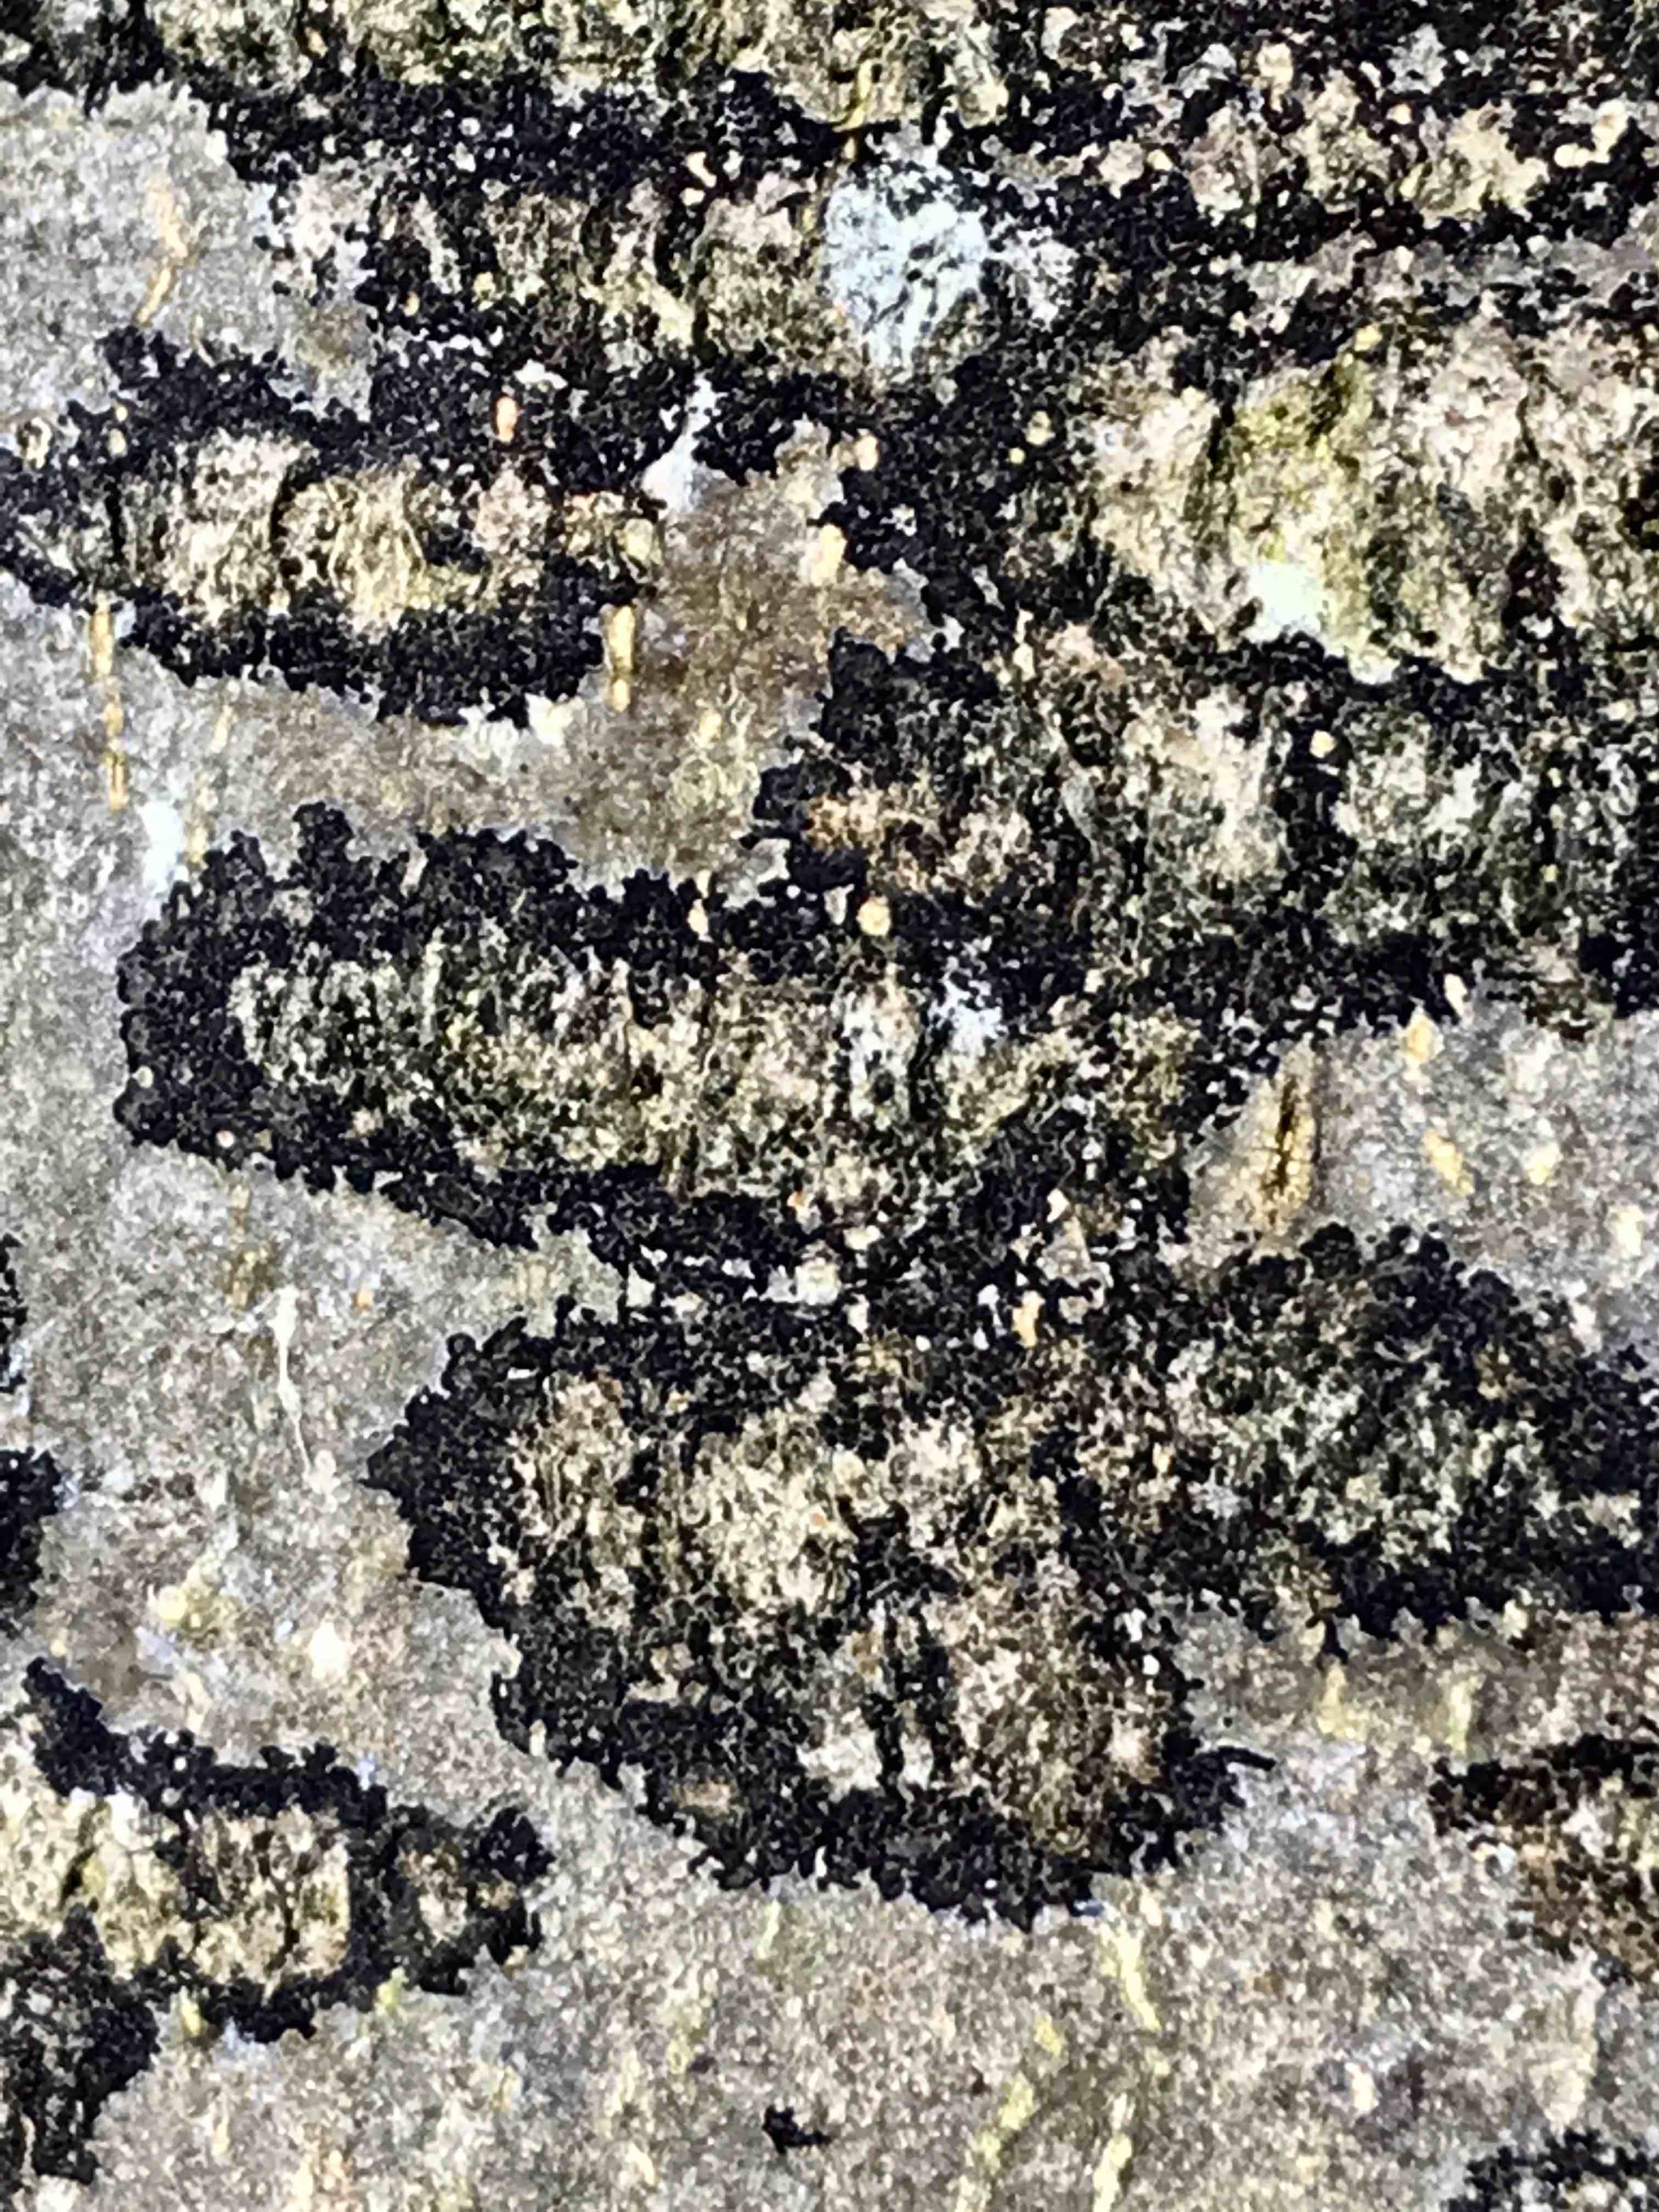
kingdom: Fungi
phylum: Ascomycota
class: Leotiomycetes
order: Rhytismatales
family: Ascodichaenaceae
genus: Ascodichaena
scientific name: Ascodichaena rugosa
